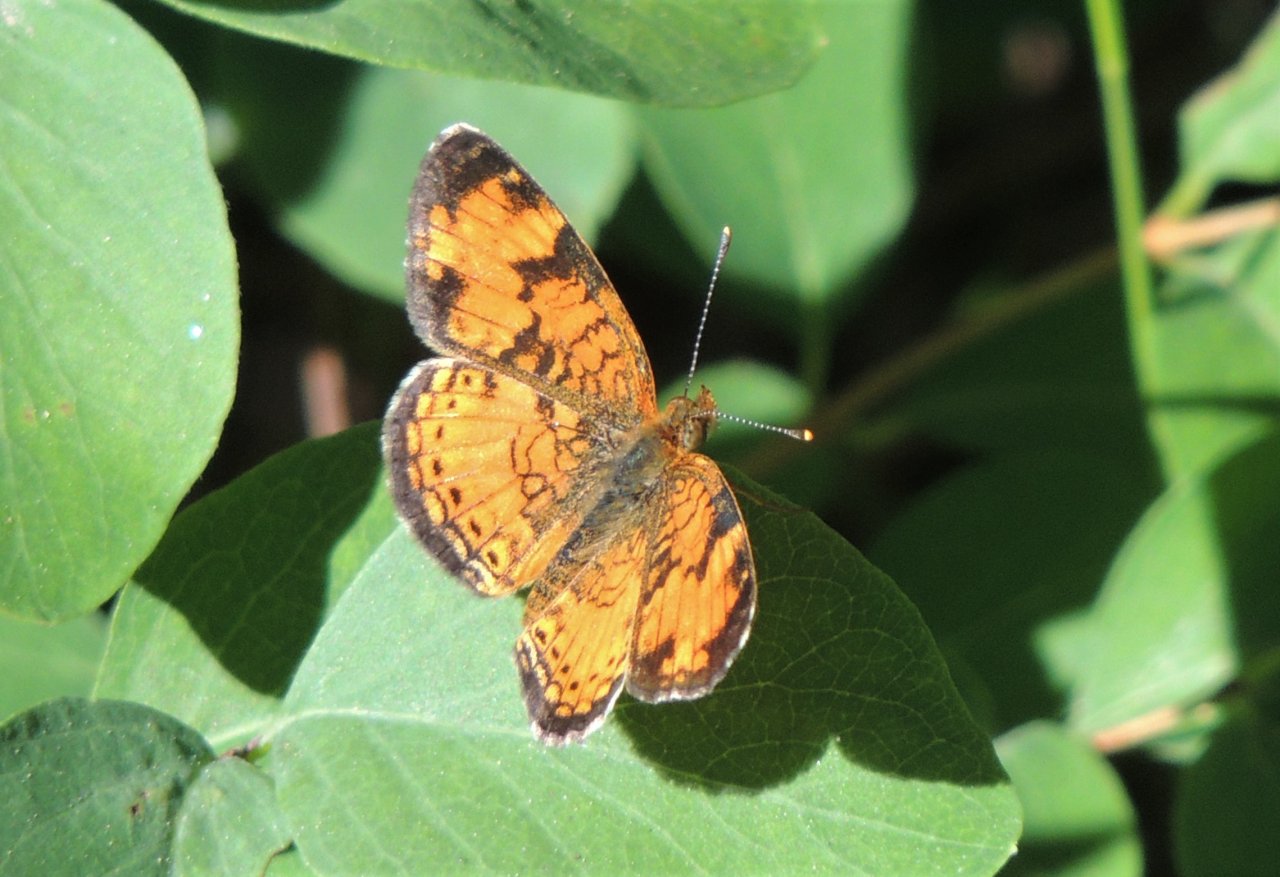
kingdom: Animalia
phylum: Arthropoda
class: Insecta
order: Lepidoptera
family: Nymphalidae
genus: Phyciodes
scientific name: Phyciodes tharos
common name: Northern Crescent
